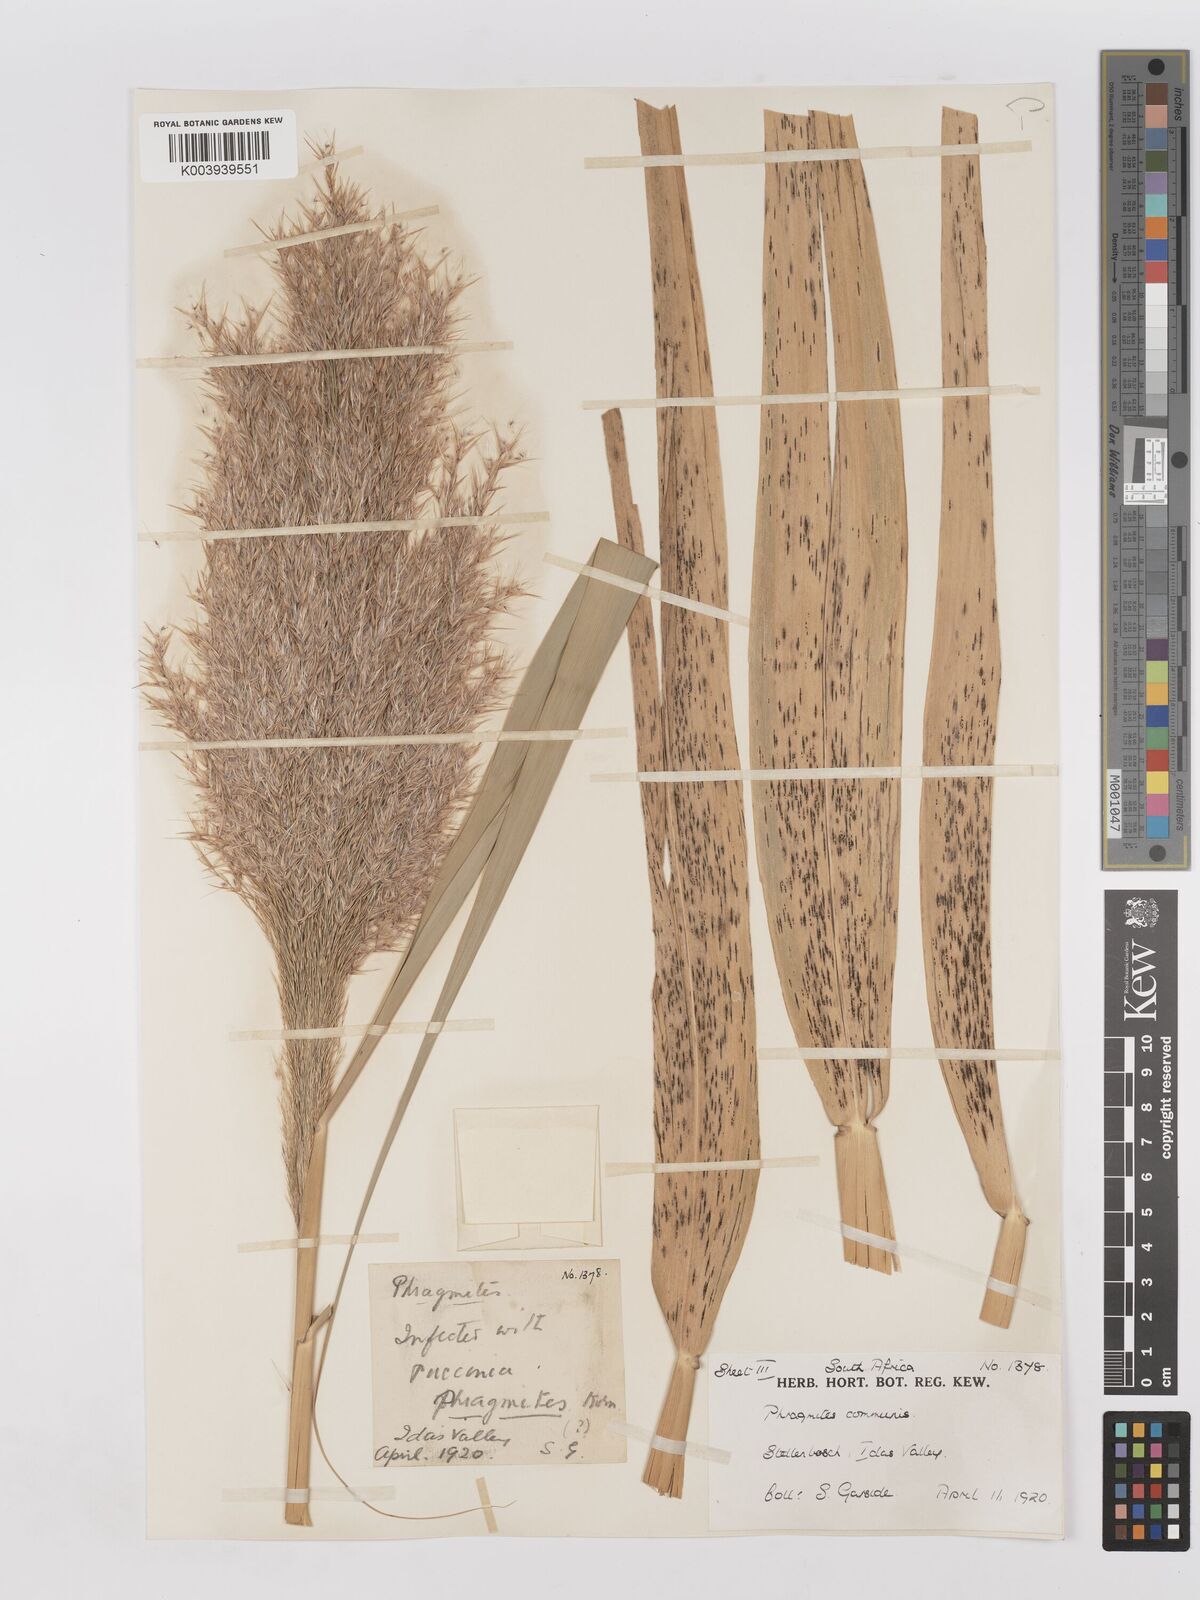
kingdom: Plantae
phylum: Tracheophyta
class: Liliopsida
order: Poales
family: Poaceae
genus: Phragmites
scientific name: Phragmites australis
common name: Common reed
